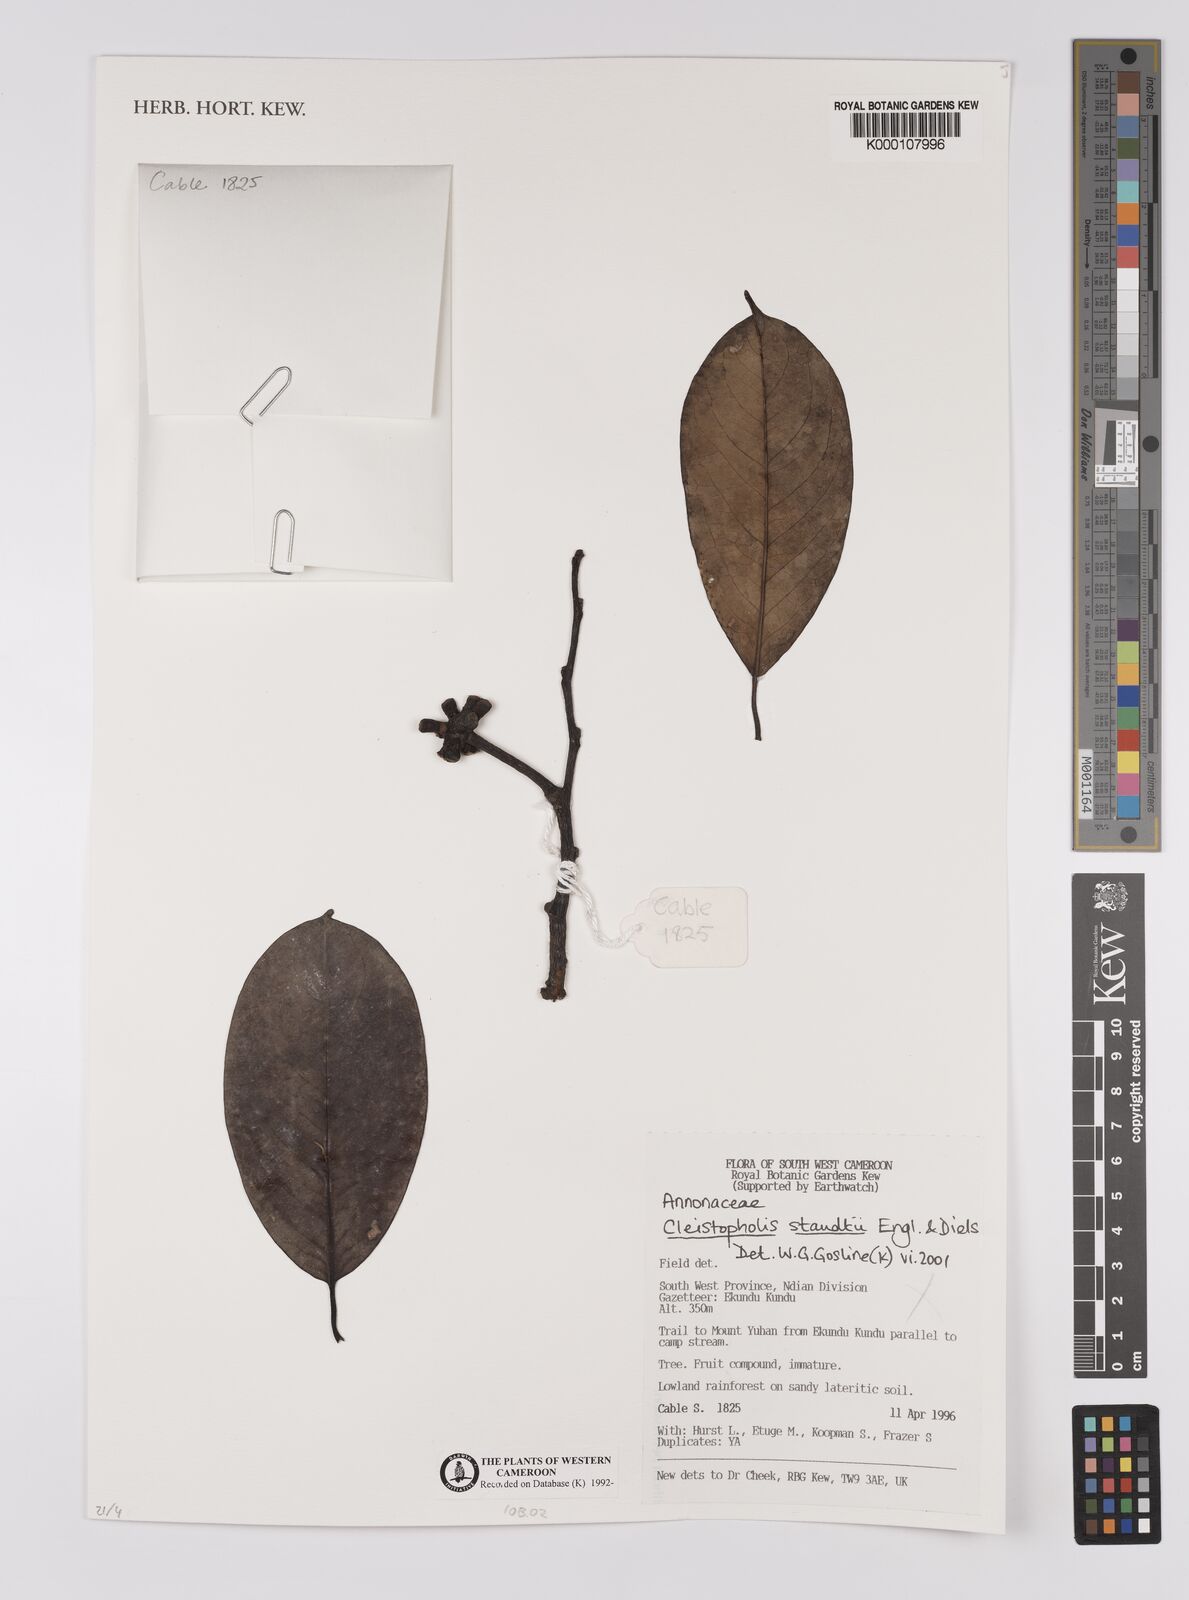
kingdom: Plantae
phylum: Tracheophyta
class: Magnoliopsida
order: Magnoliales
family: Annonaceae
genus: Cleistopholis
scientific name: Cleistopholis staudtii
